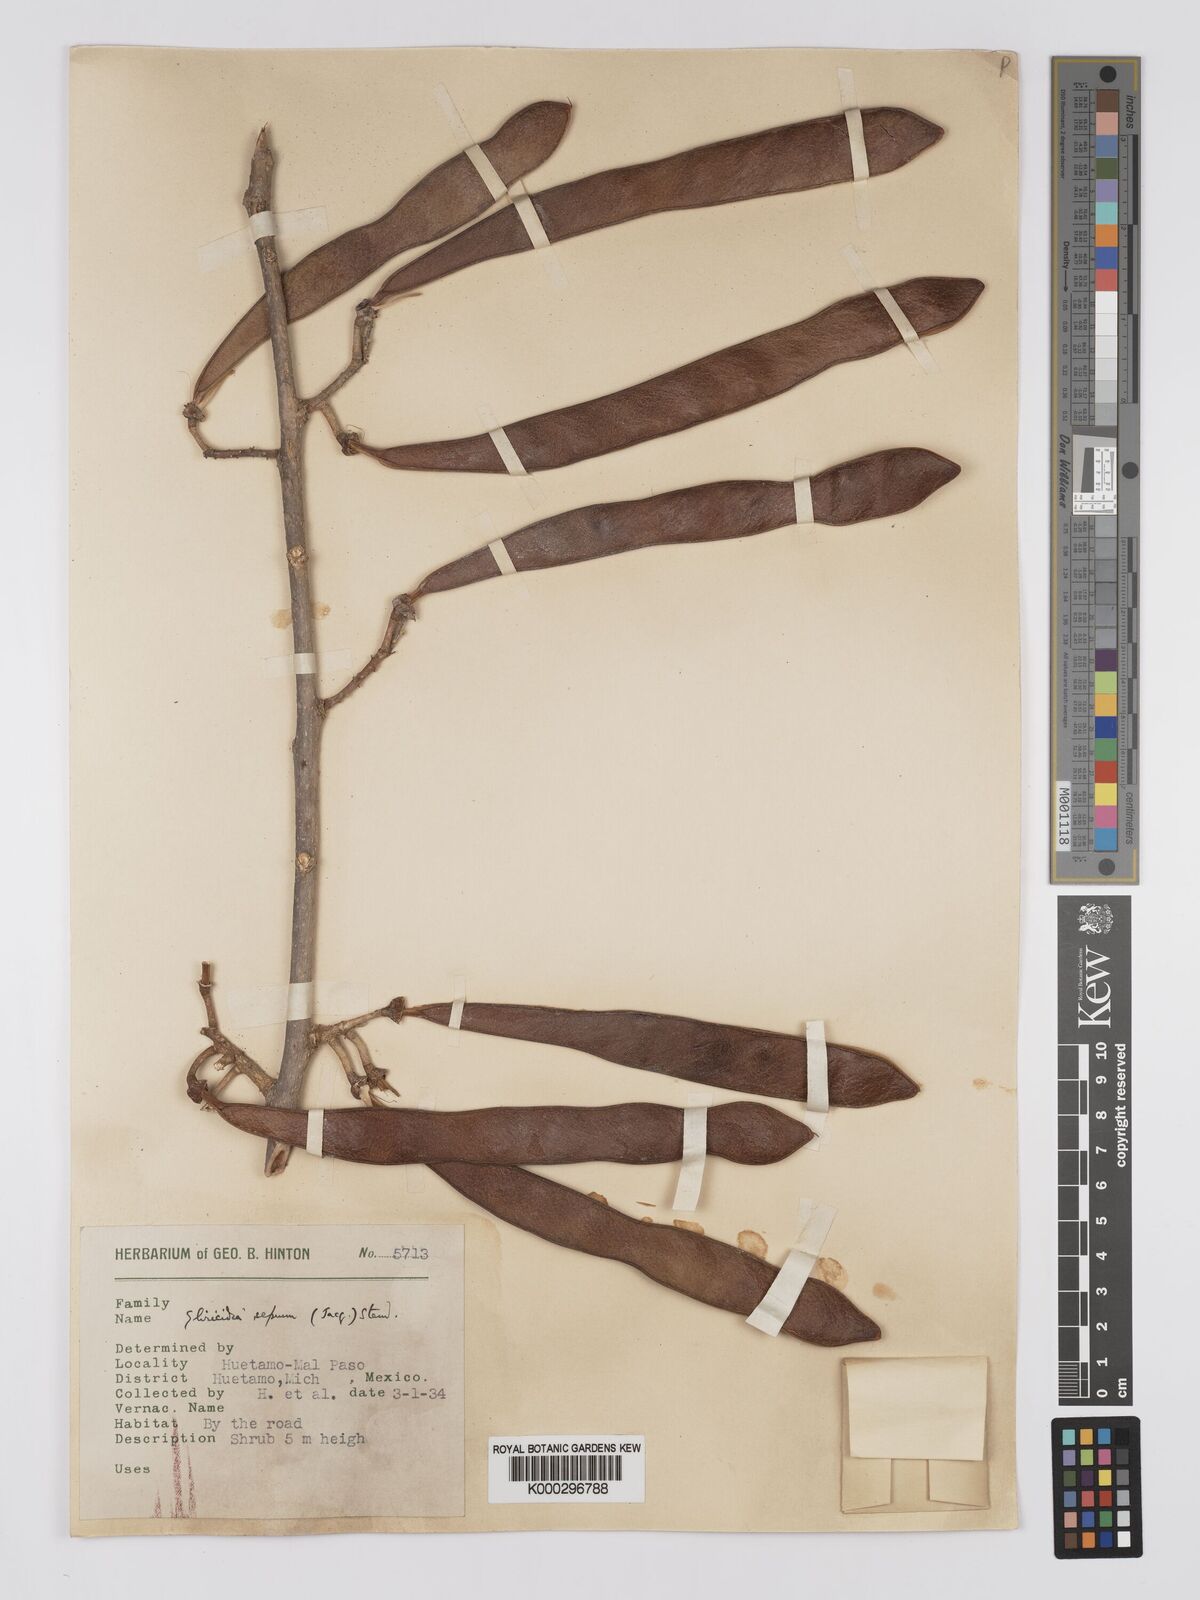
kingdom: Plantae
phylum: Tracheophyta
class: Magnoliopsida
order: Fabales
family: Fabaceae
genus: Gliricidia
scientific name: Gliricidia sepium
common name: Quickstick
